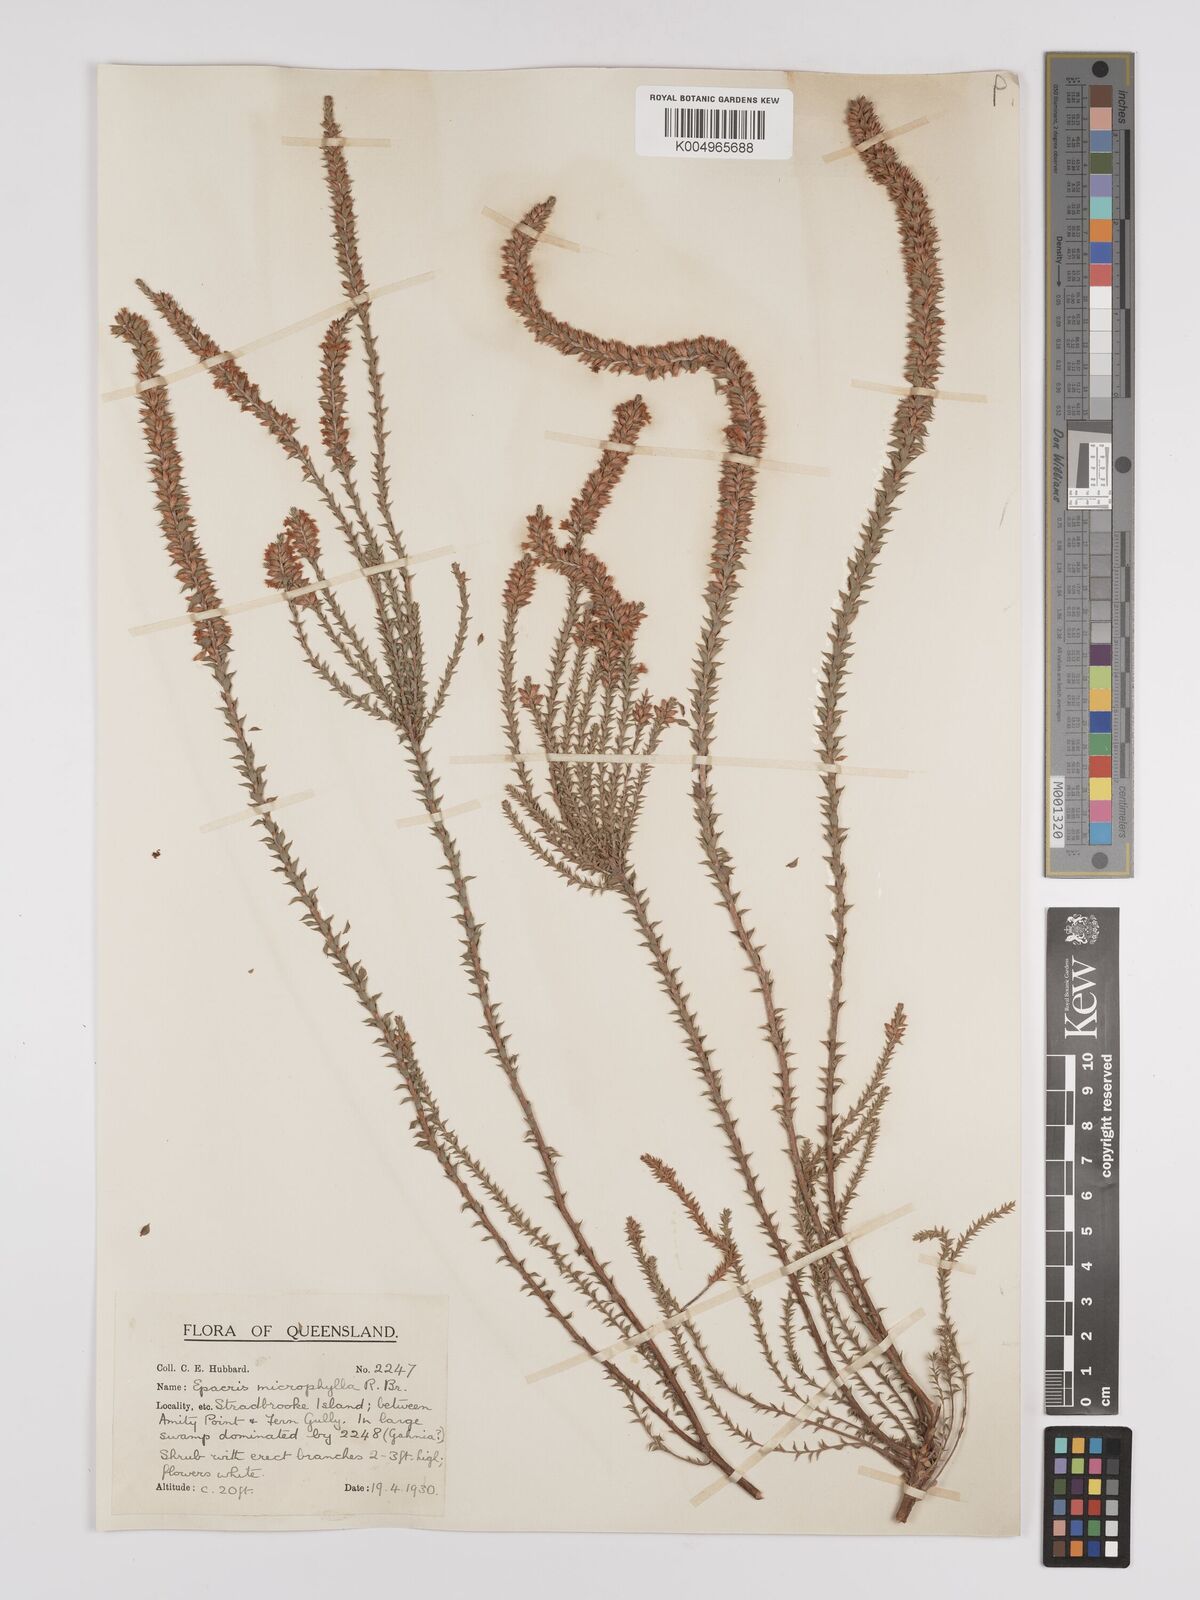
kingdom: Plantae
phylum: Tracheophyta
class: Magnoliopsida
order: Ericales
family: Ericaceae
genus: Epacris
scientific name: Epacris
